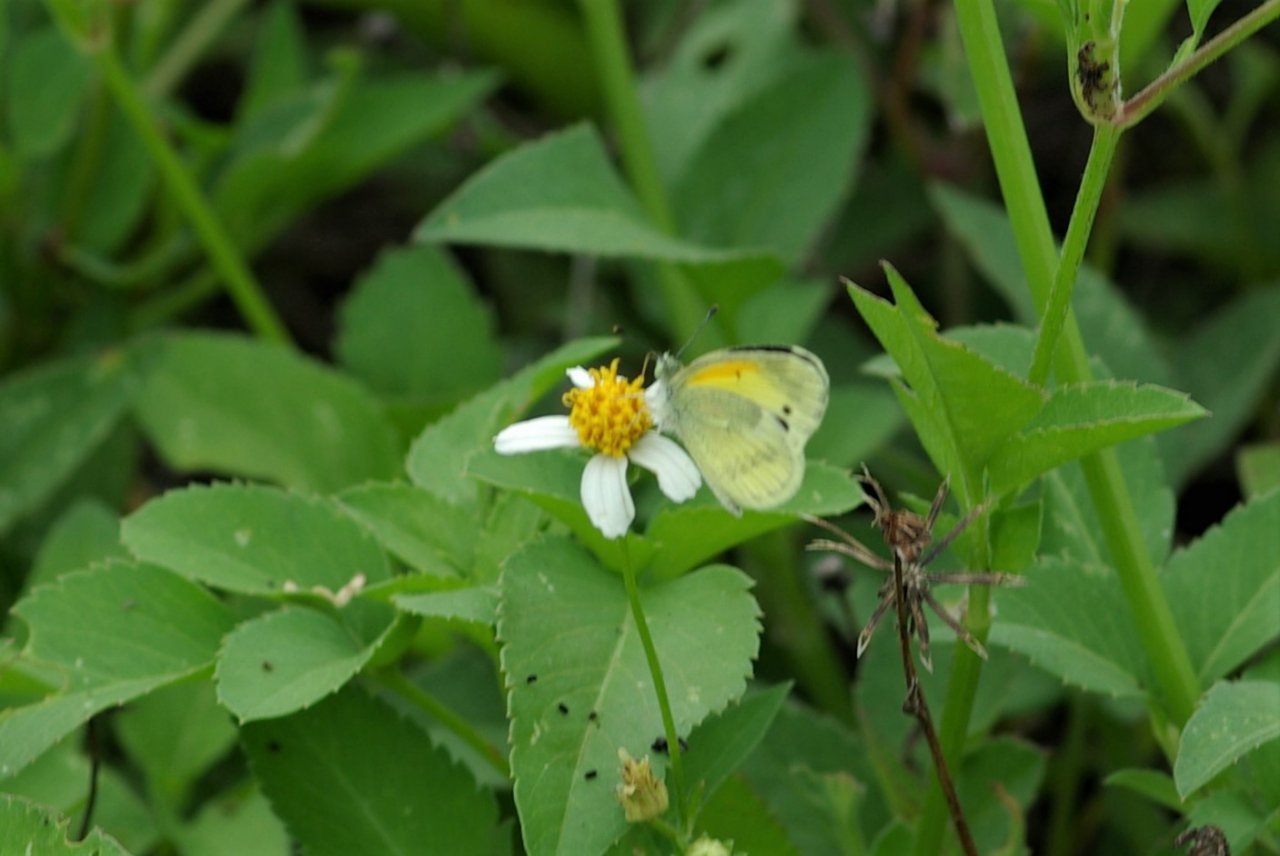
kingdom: Animalia
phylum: Arthropoda
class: Insecta
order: Lepidoptera
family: Pieridae
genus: Nathalis
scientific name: Nathalis iole
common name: Dainty Sulphur
